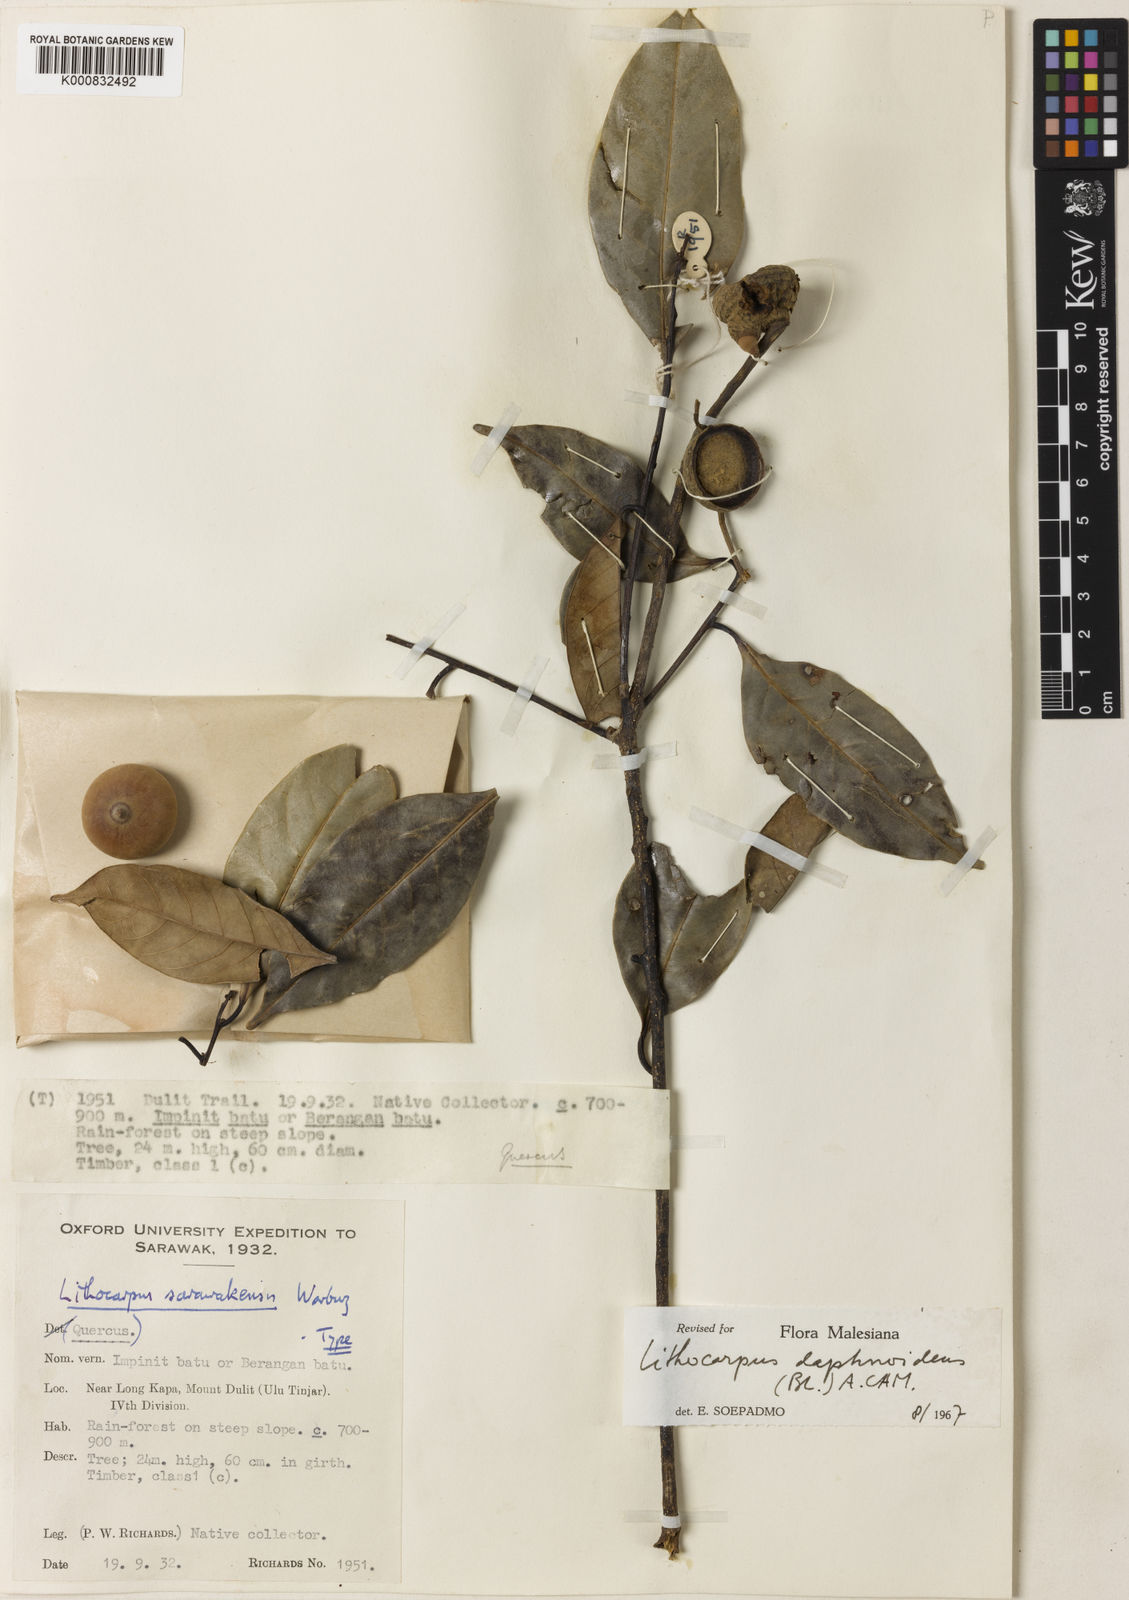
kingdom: Plantae
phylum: Tracheophyta
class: Magnoliopsida
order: Fagales
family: Fagaceae
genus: Lithocarpus
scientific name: Lithocarpus daphnoideus
